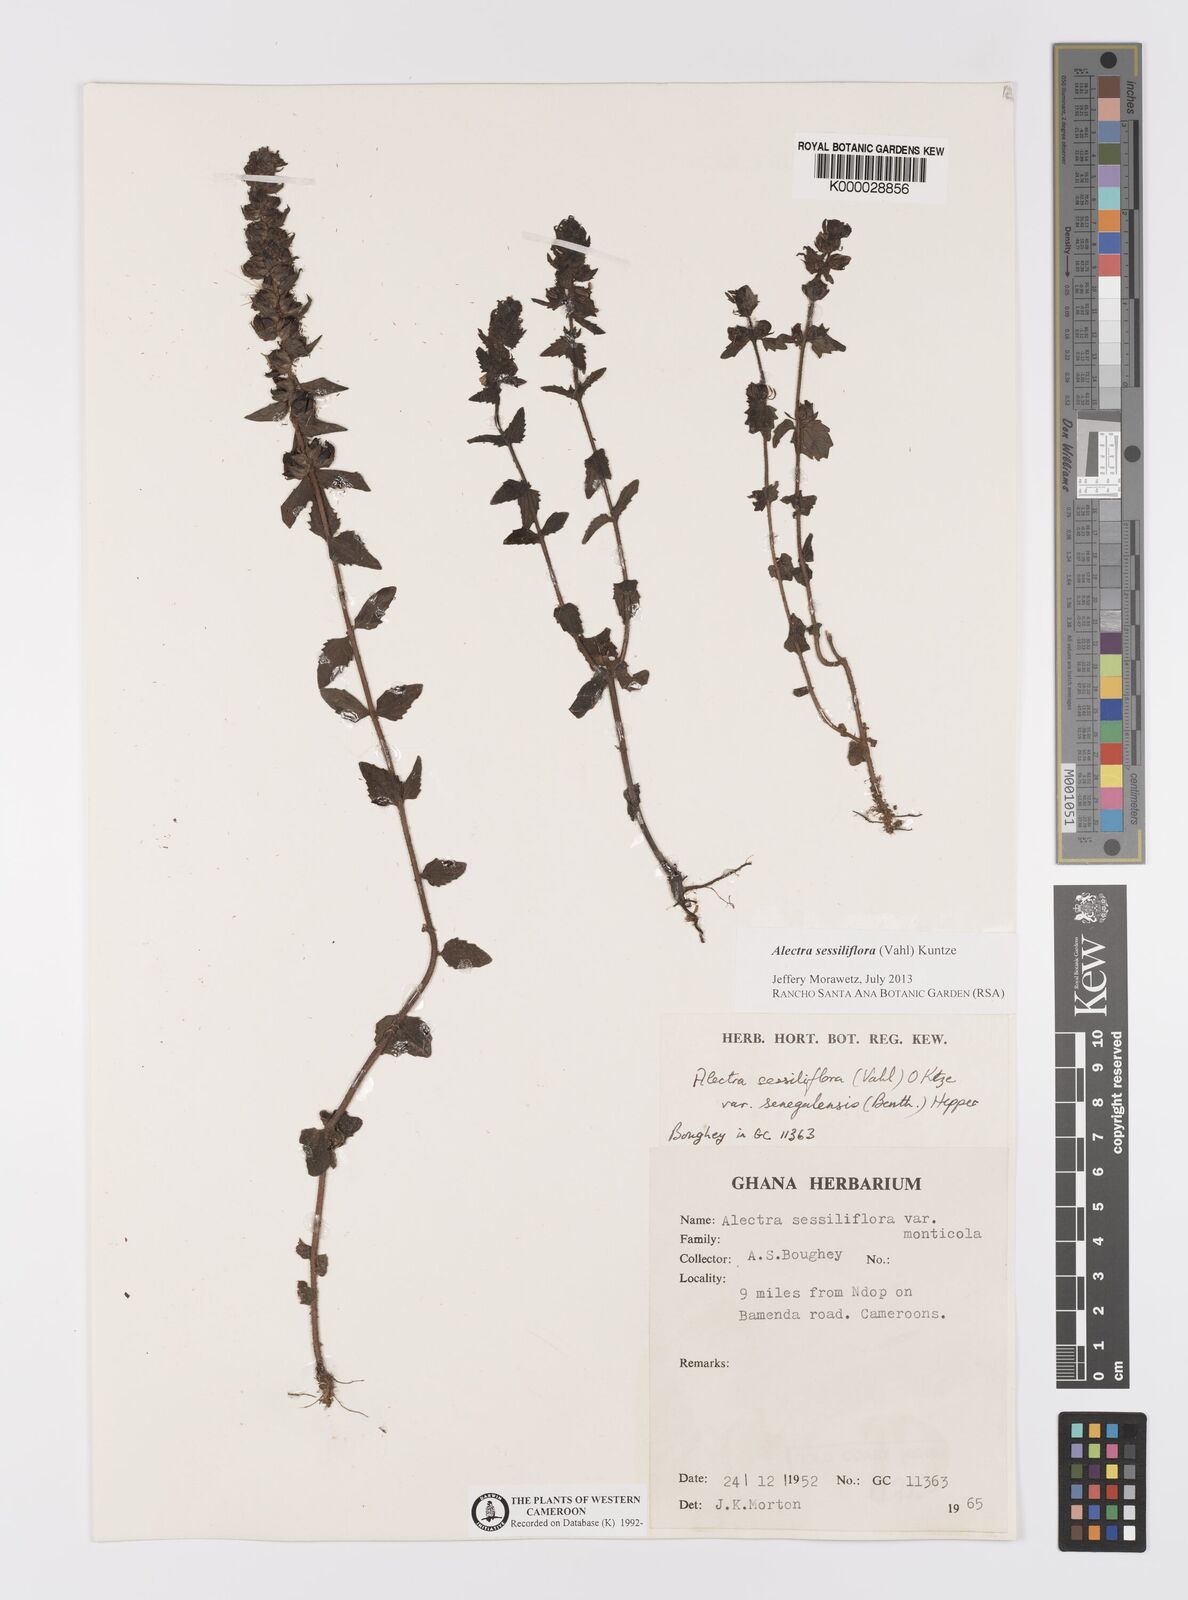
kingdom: Plantae
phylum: Tracheophyta
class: Magnoliopsida
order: Lamiales
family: Orobanchaceae
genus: Alectra
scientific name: Alectra sessiliflora
